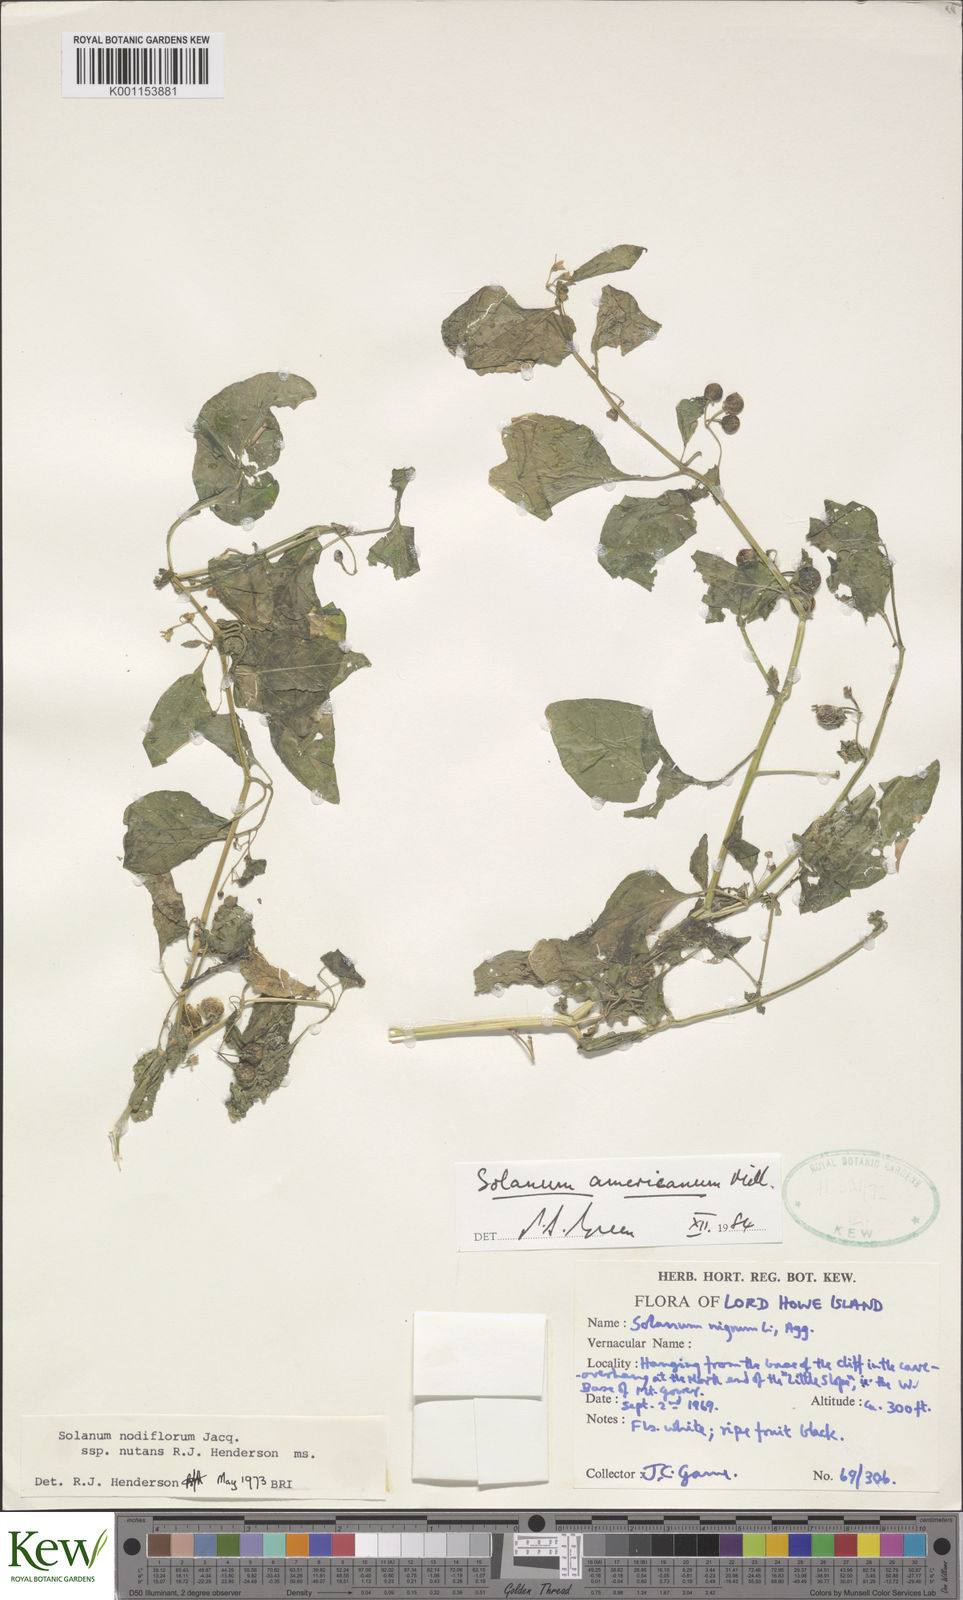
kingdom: Plantae
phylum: Tracheophyta
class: Magnoliopsida
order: Solanales
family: Solanaceae
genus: Solanum
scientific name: Solanum americanum
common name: American black nightshade
